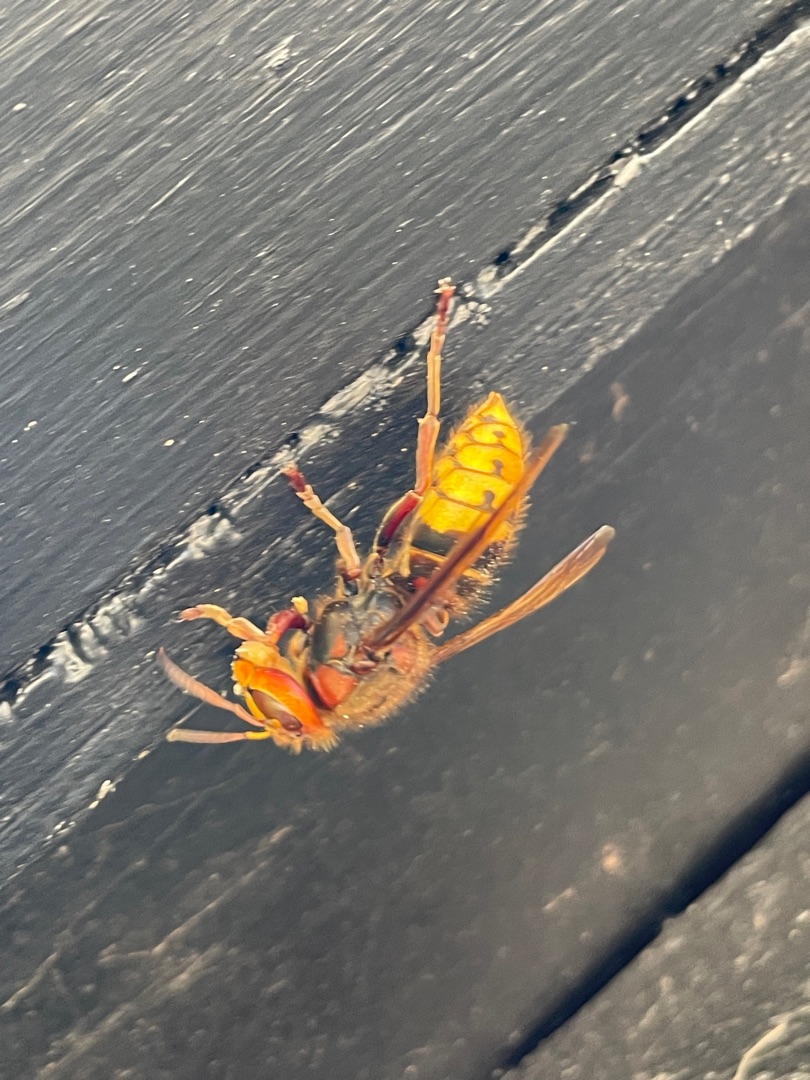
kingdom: Animalia
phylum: Arthropoda
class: Insecta
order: Hymenoptera
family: Vespidae
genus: Vespa
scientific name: Vespa crabro
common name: Stor gedehams
